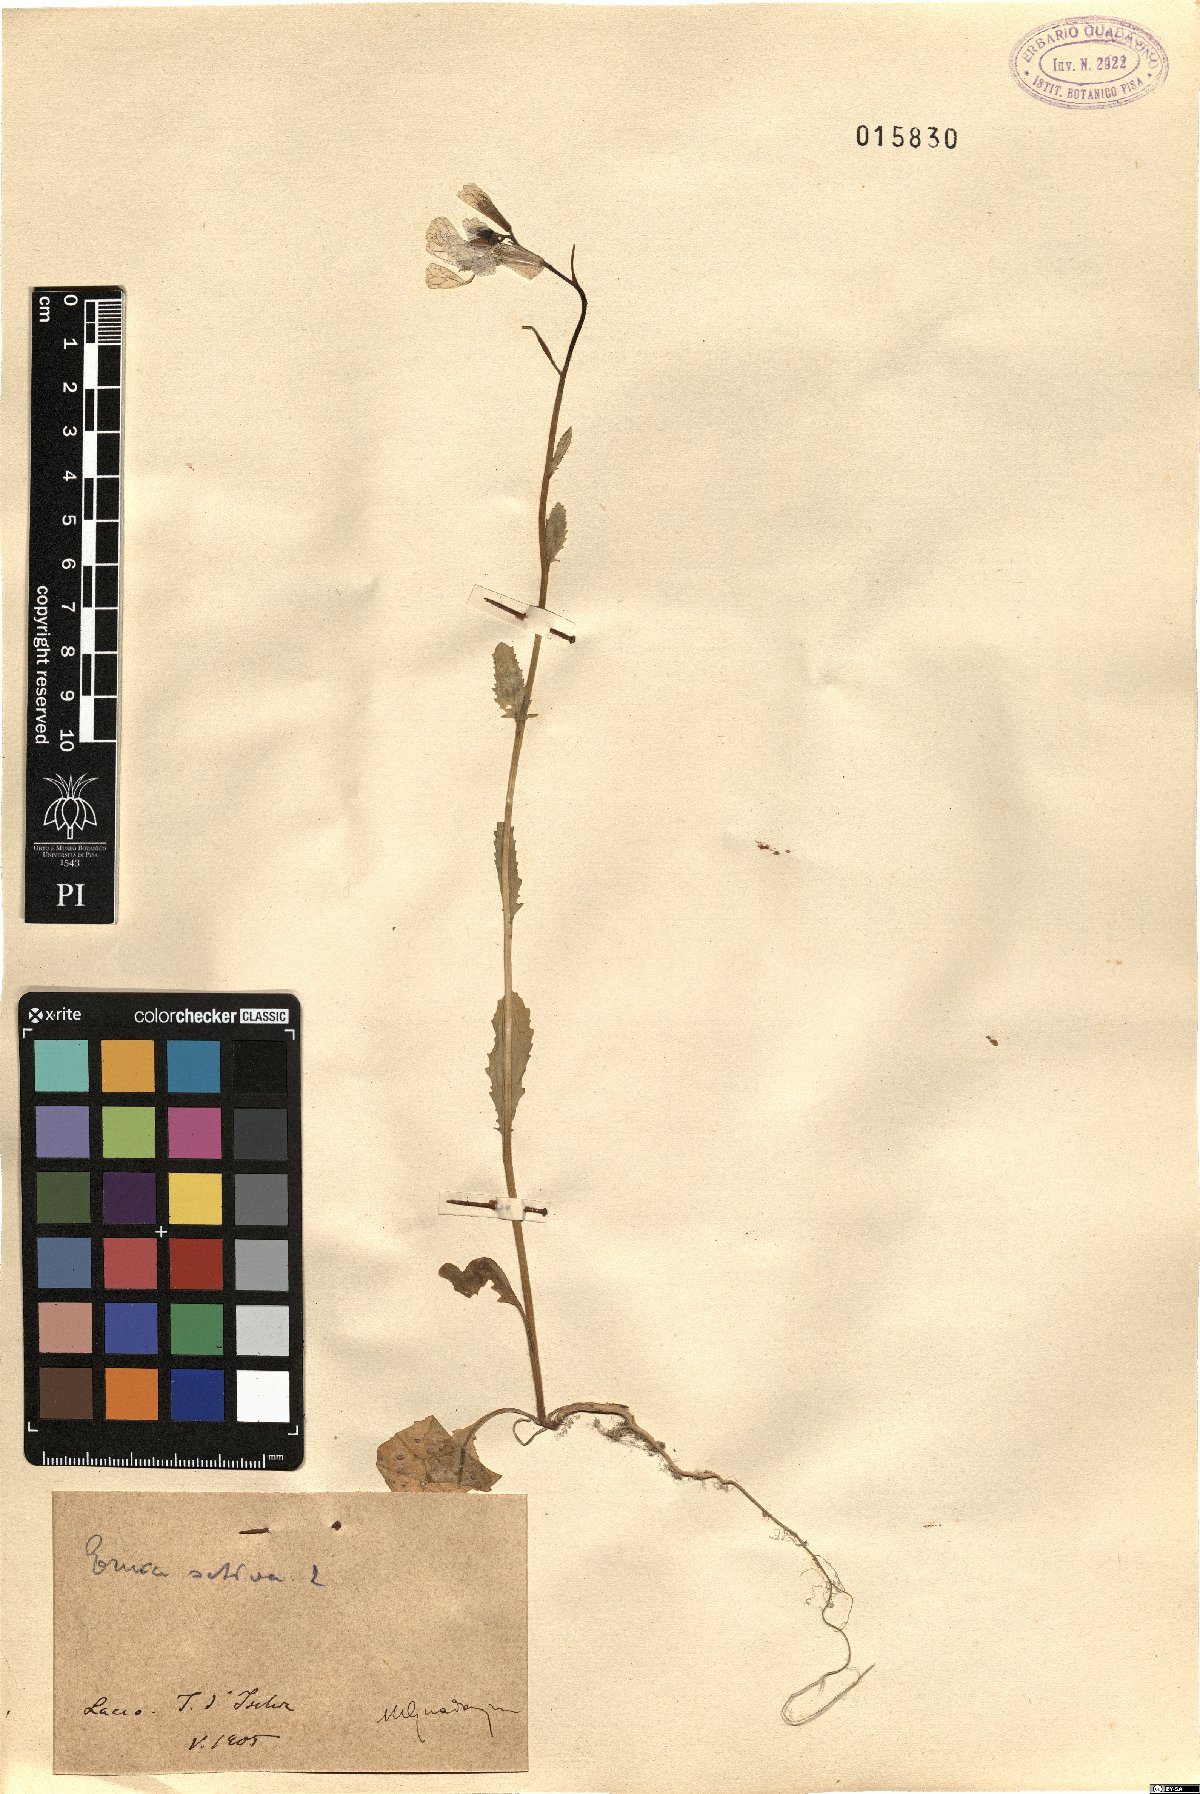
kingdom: Plantae
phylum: Tracheophyta
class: Magnoliopsida
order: Brassicales
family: Brassicaceae
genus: Eruca
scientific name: Eruca vesicaria
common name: Garden rocket
